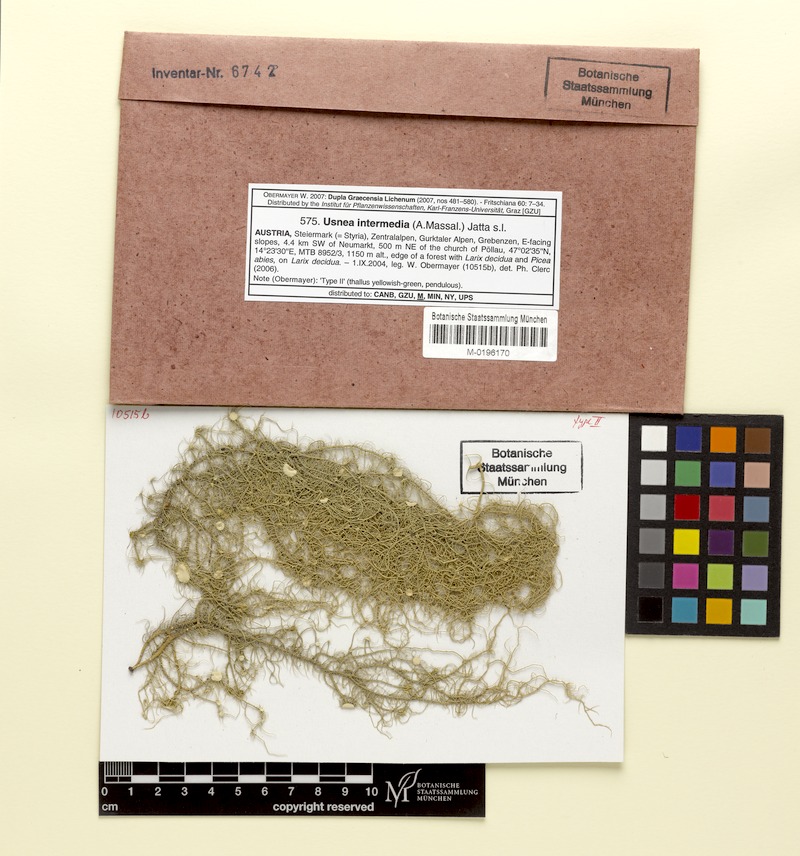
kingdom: Fungi
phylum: Ascomycota
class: Lecanoromycetes
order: Lecanorales
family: Parmeliaceae
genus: Usnea
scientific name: Usnea intermedia
